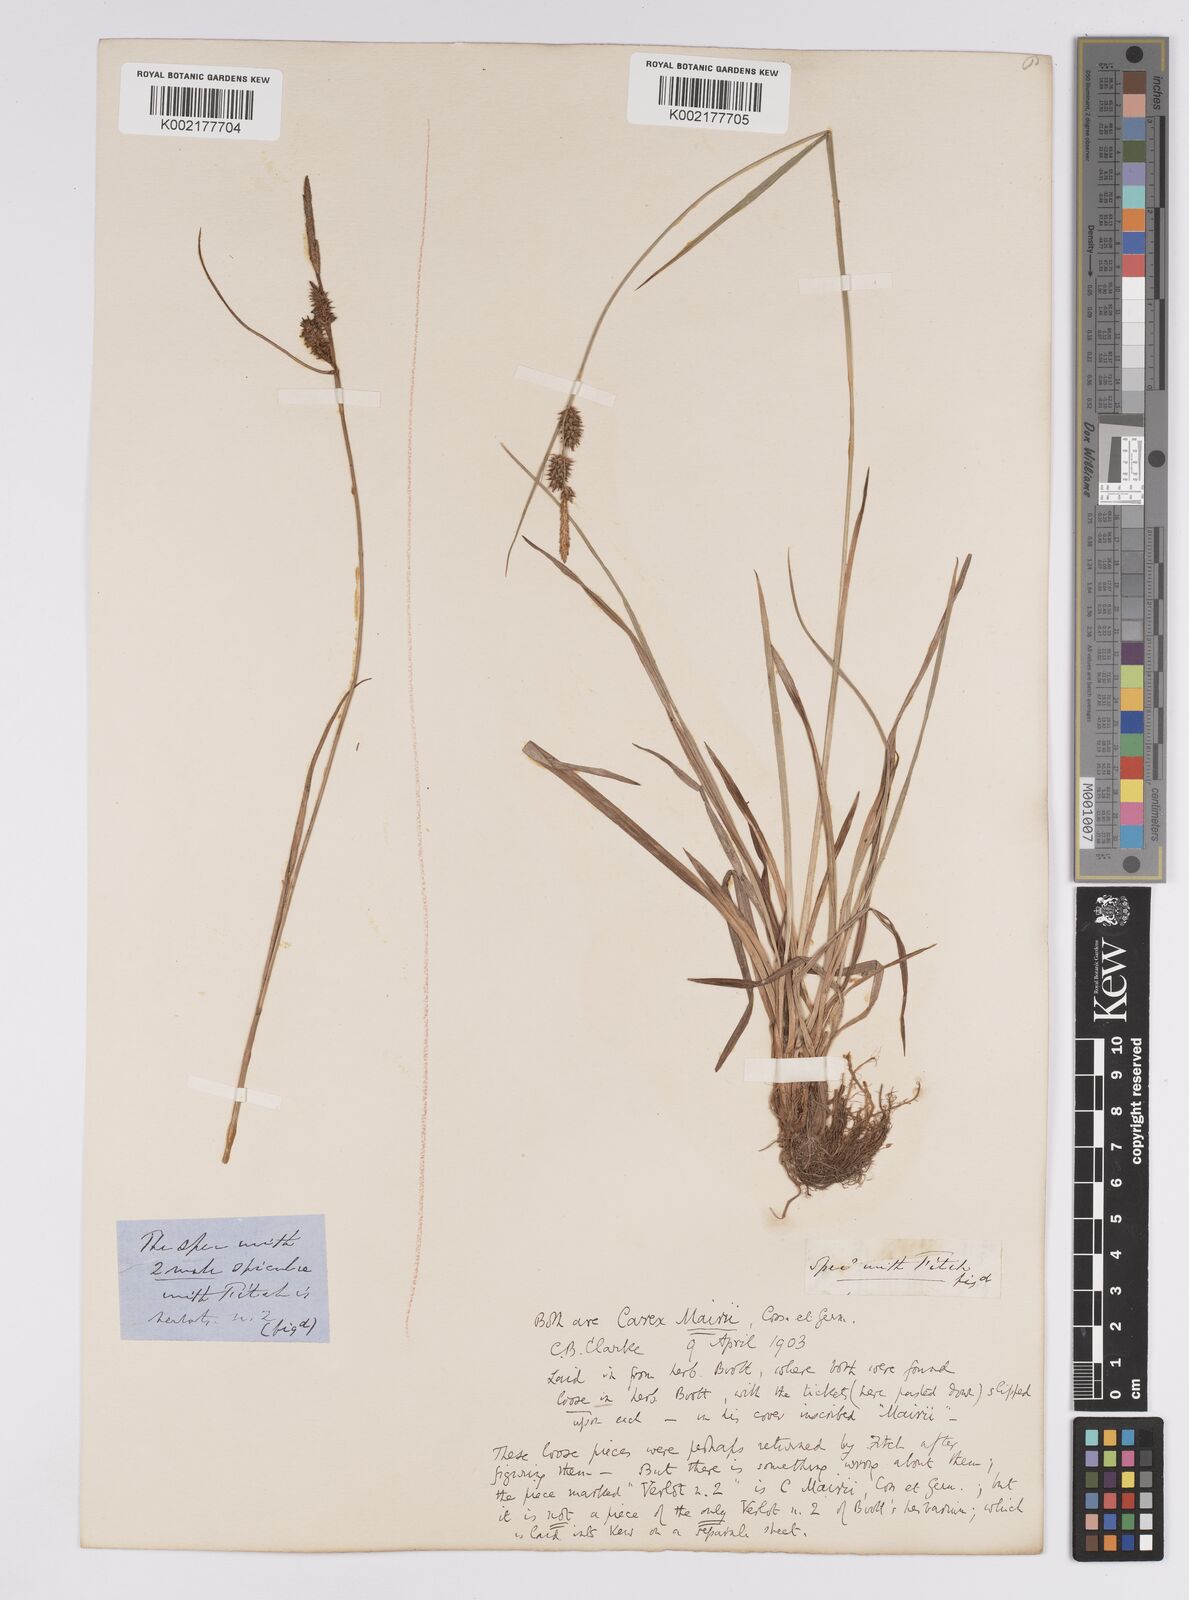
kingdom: Plantae
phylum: Tracheophyta
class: Liliopsida
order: Poales
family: Cyperaceae
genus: Carex
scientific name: Carex mairei
